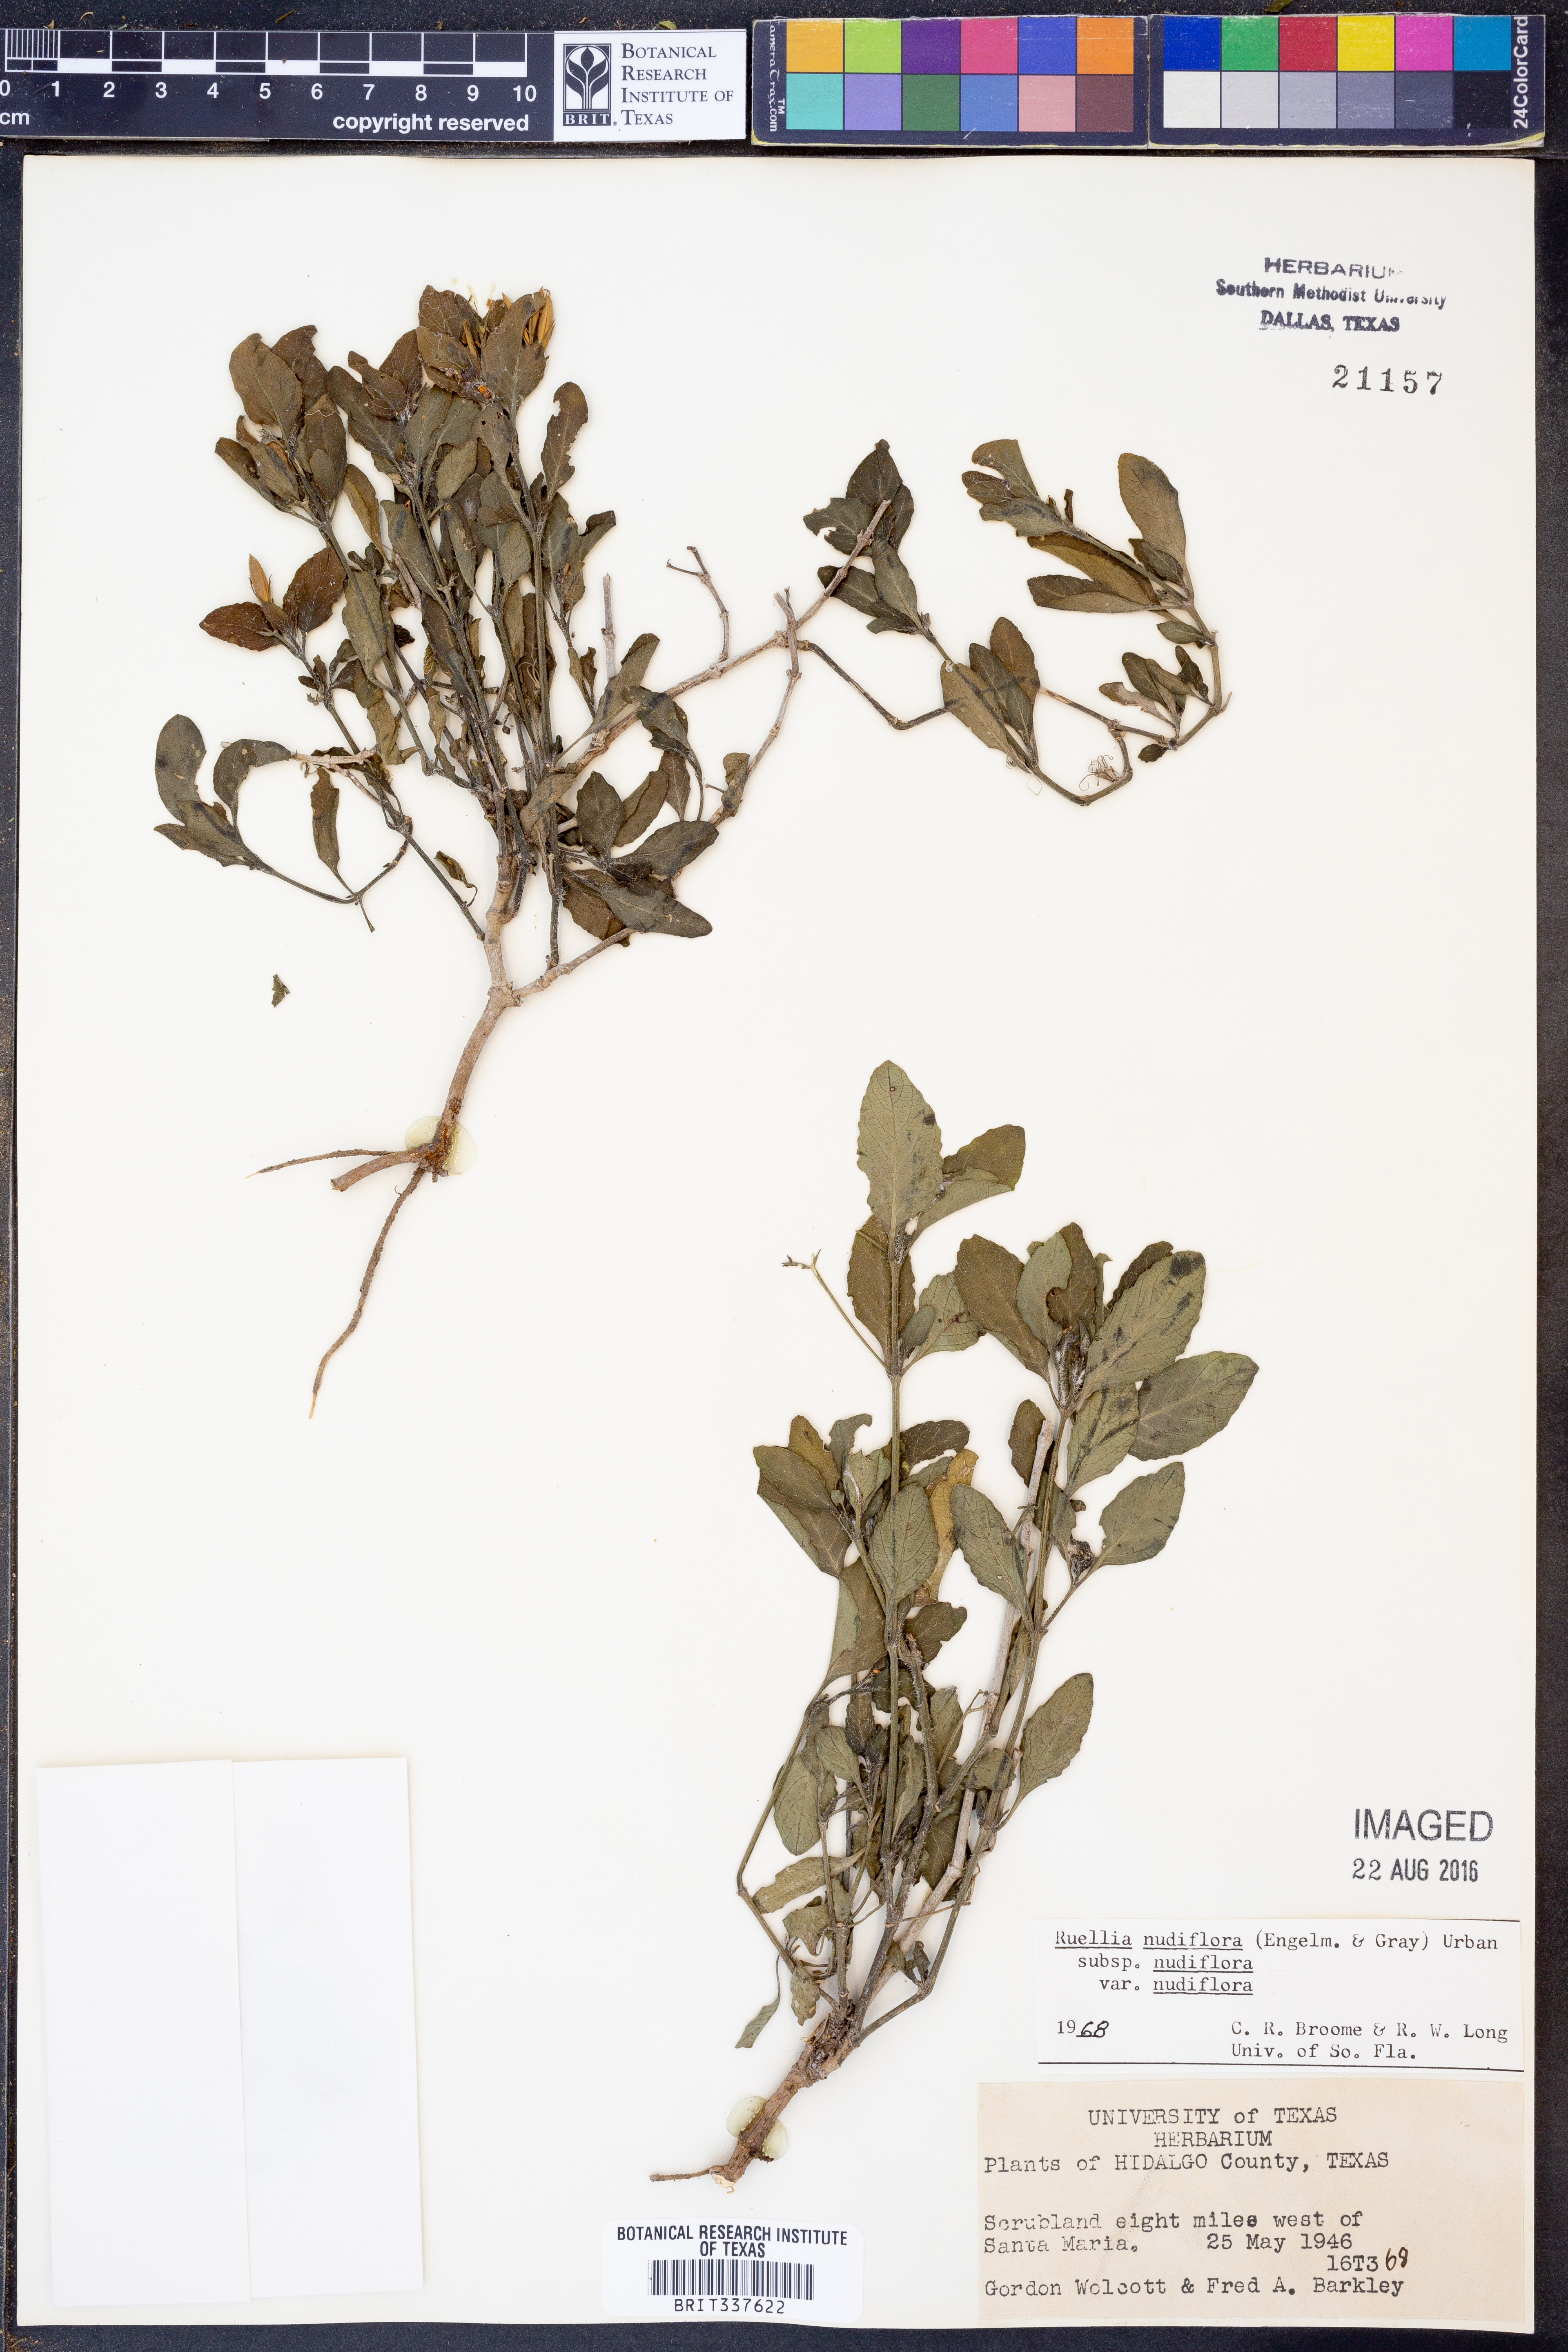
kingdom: Plantae
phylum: Tracheophyta
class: Magnoliopsida
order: Lamiales
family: Acanthaceae
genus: Ruellia
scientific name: Ruellia ciliatiflora
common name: Hairyflower wild petunia
